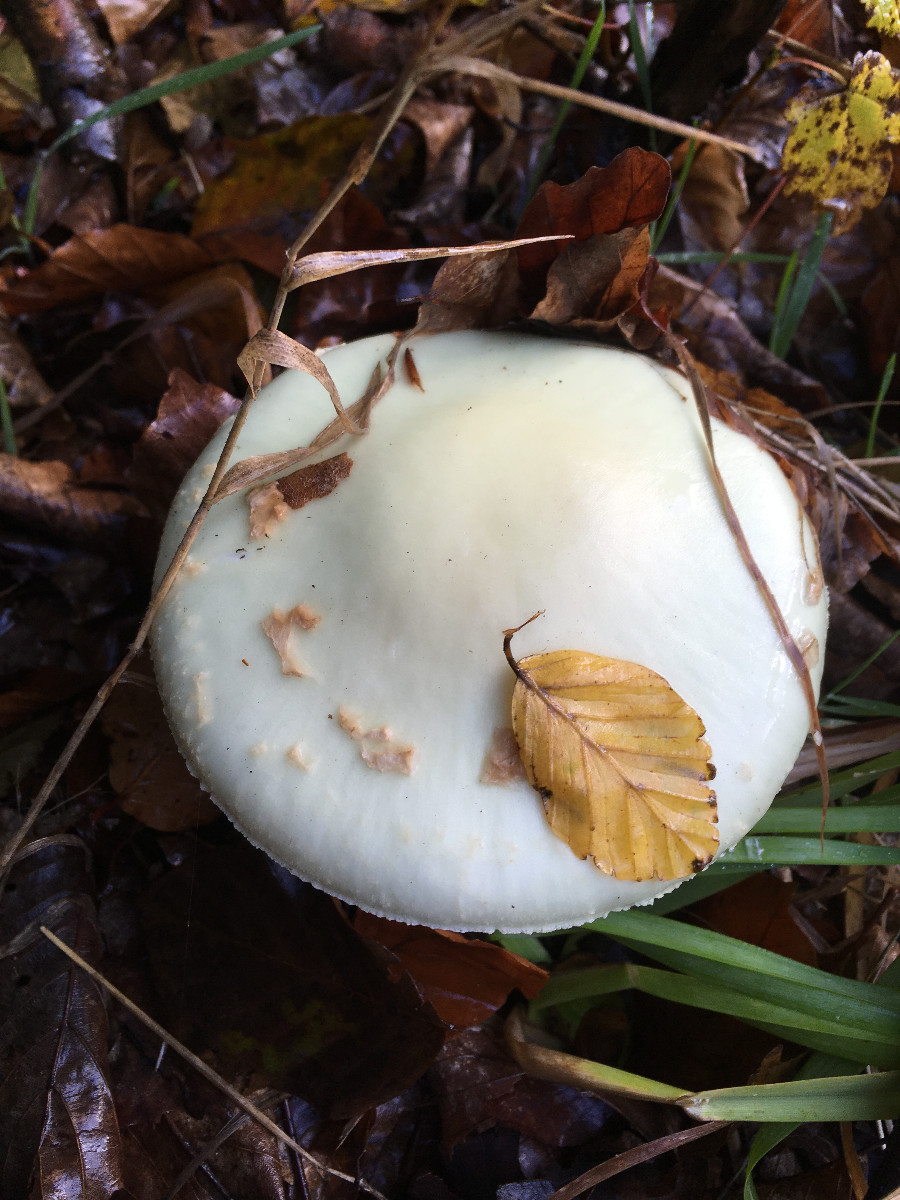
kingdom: Fungi
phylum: Basidiomycota
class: Agaricomycetes
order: Agaricales
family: Amanitaceae
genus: Amanita
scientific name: Amanita citrina
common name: kugleknoldet fluesvamp
